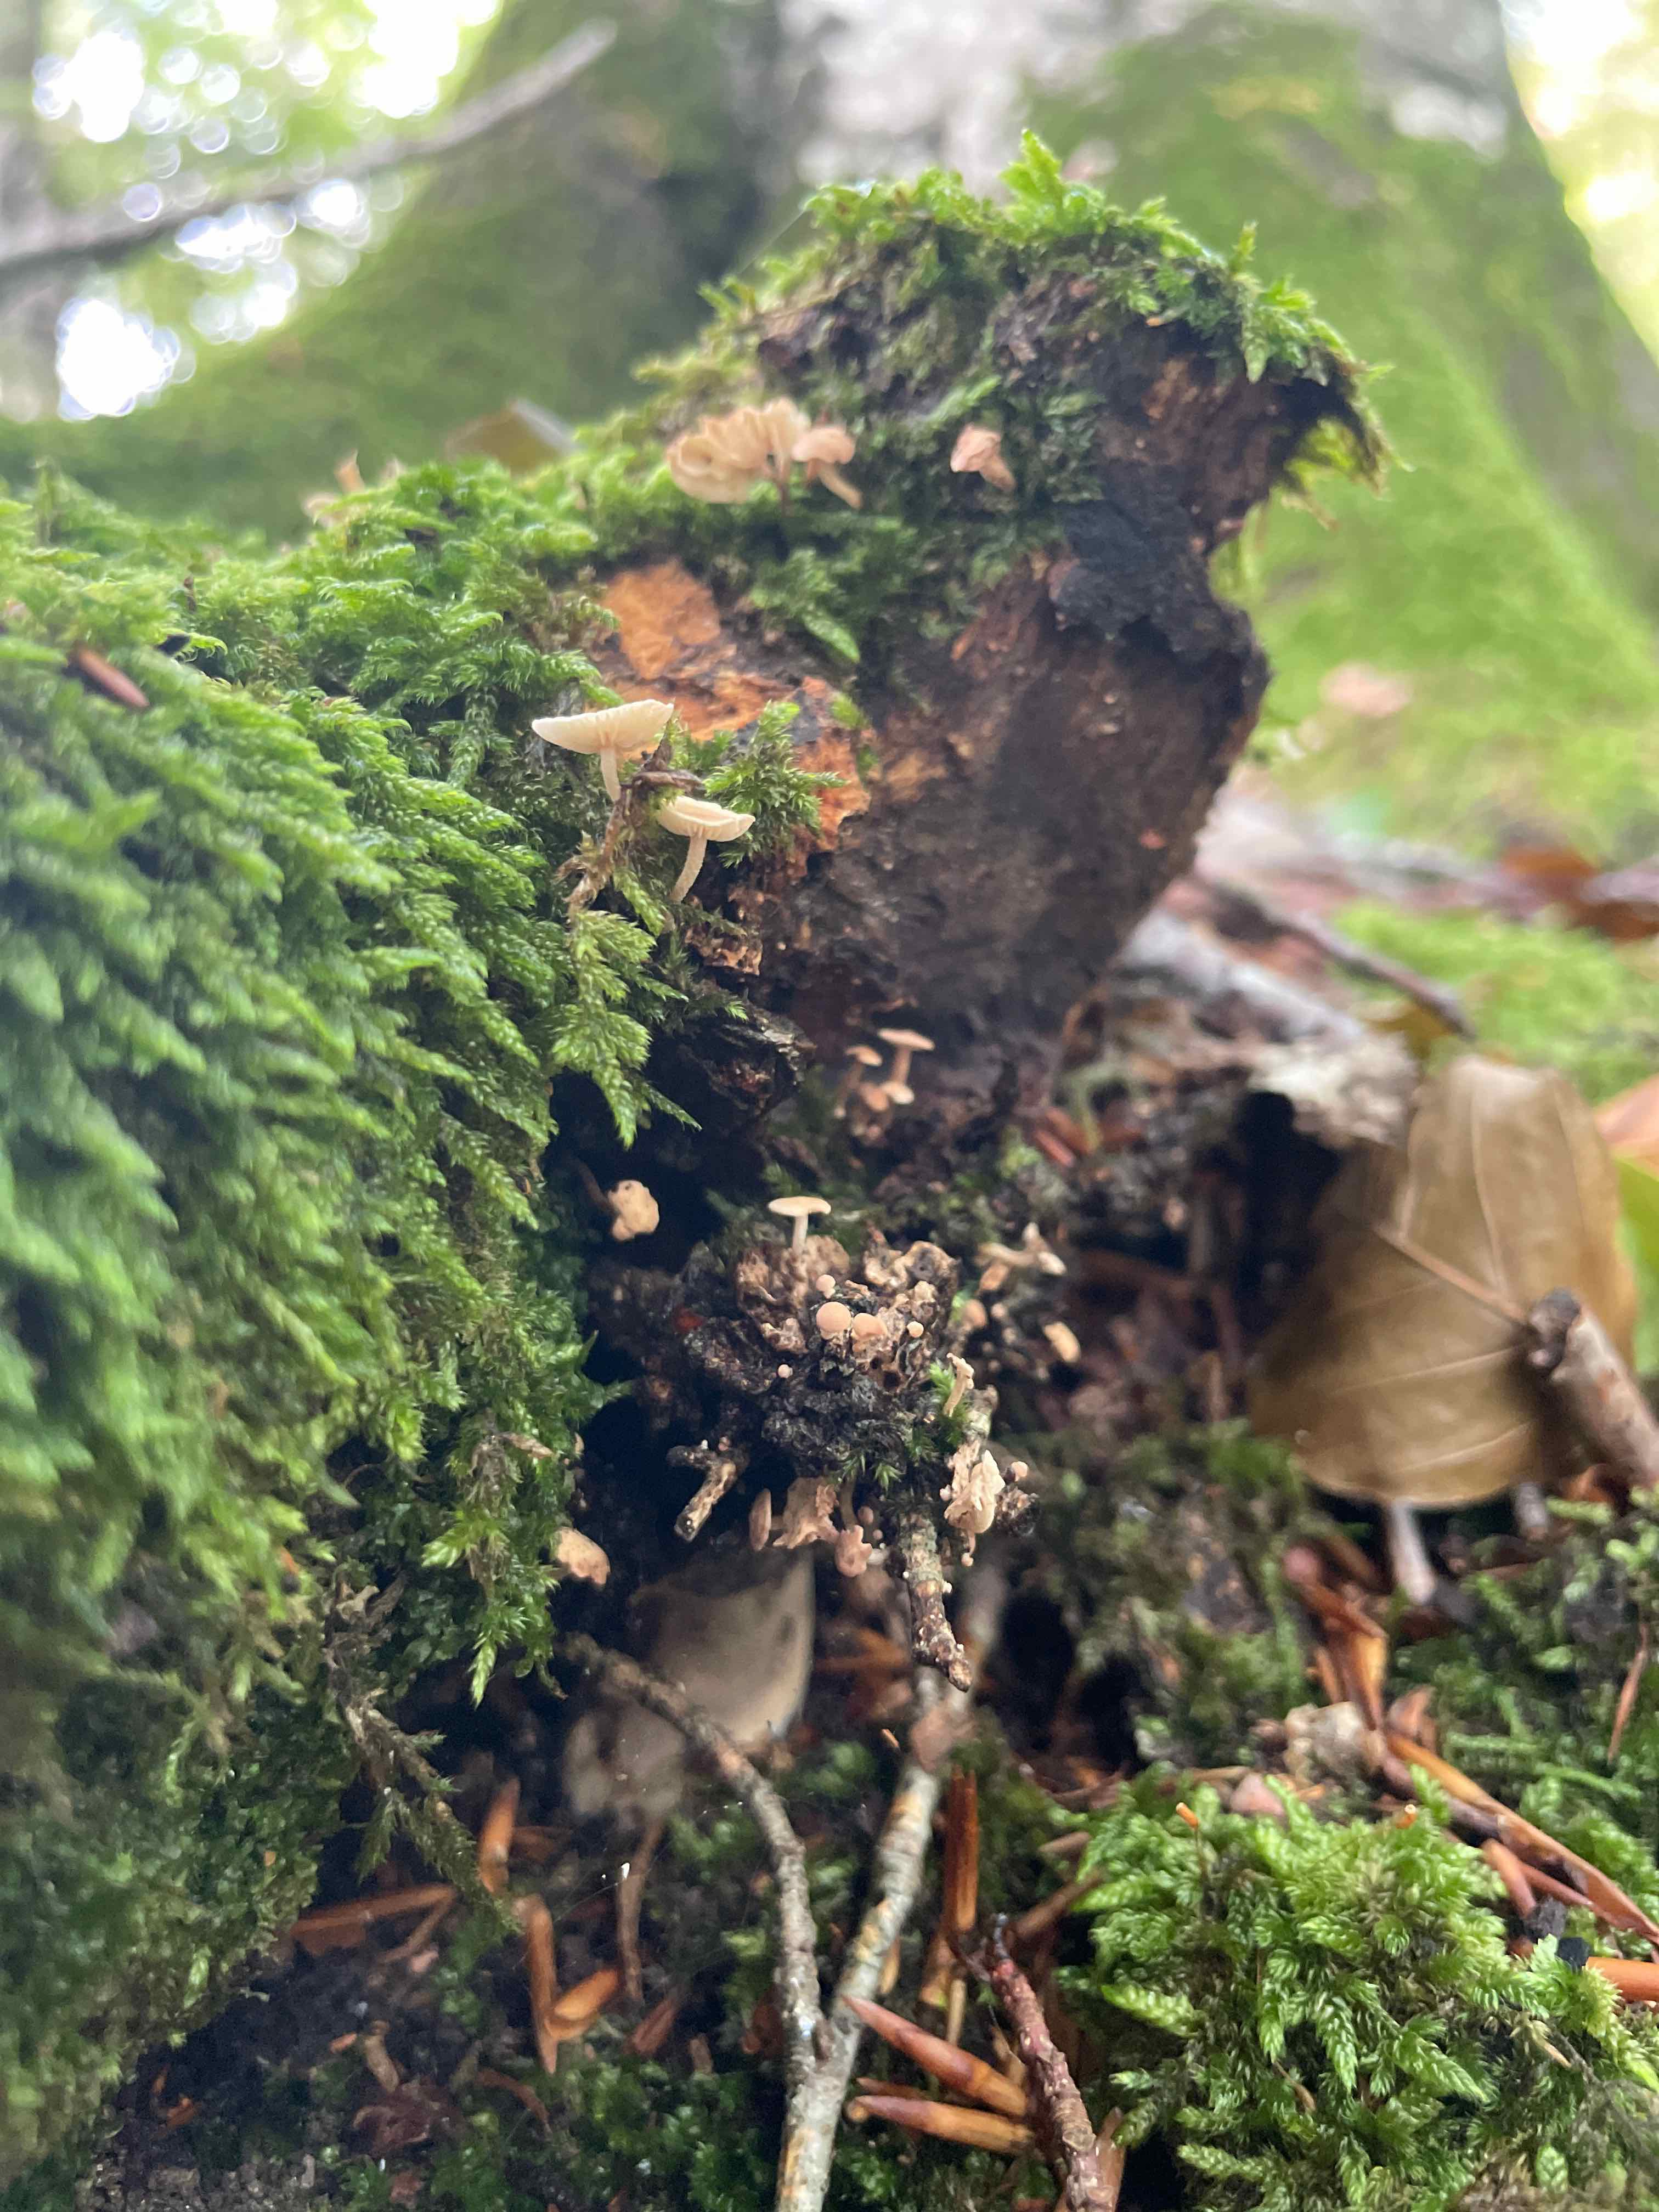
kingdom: Fungi
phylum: Basidiomycota
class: Agaricomycetes
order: Agaricales
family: Omphalotaceae
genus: Collybiopsis
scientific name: Collybiopsis ramealis
